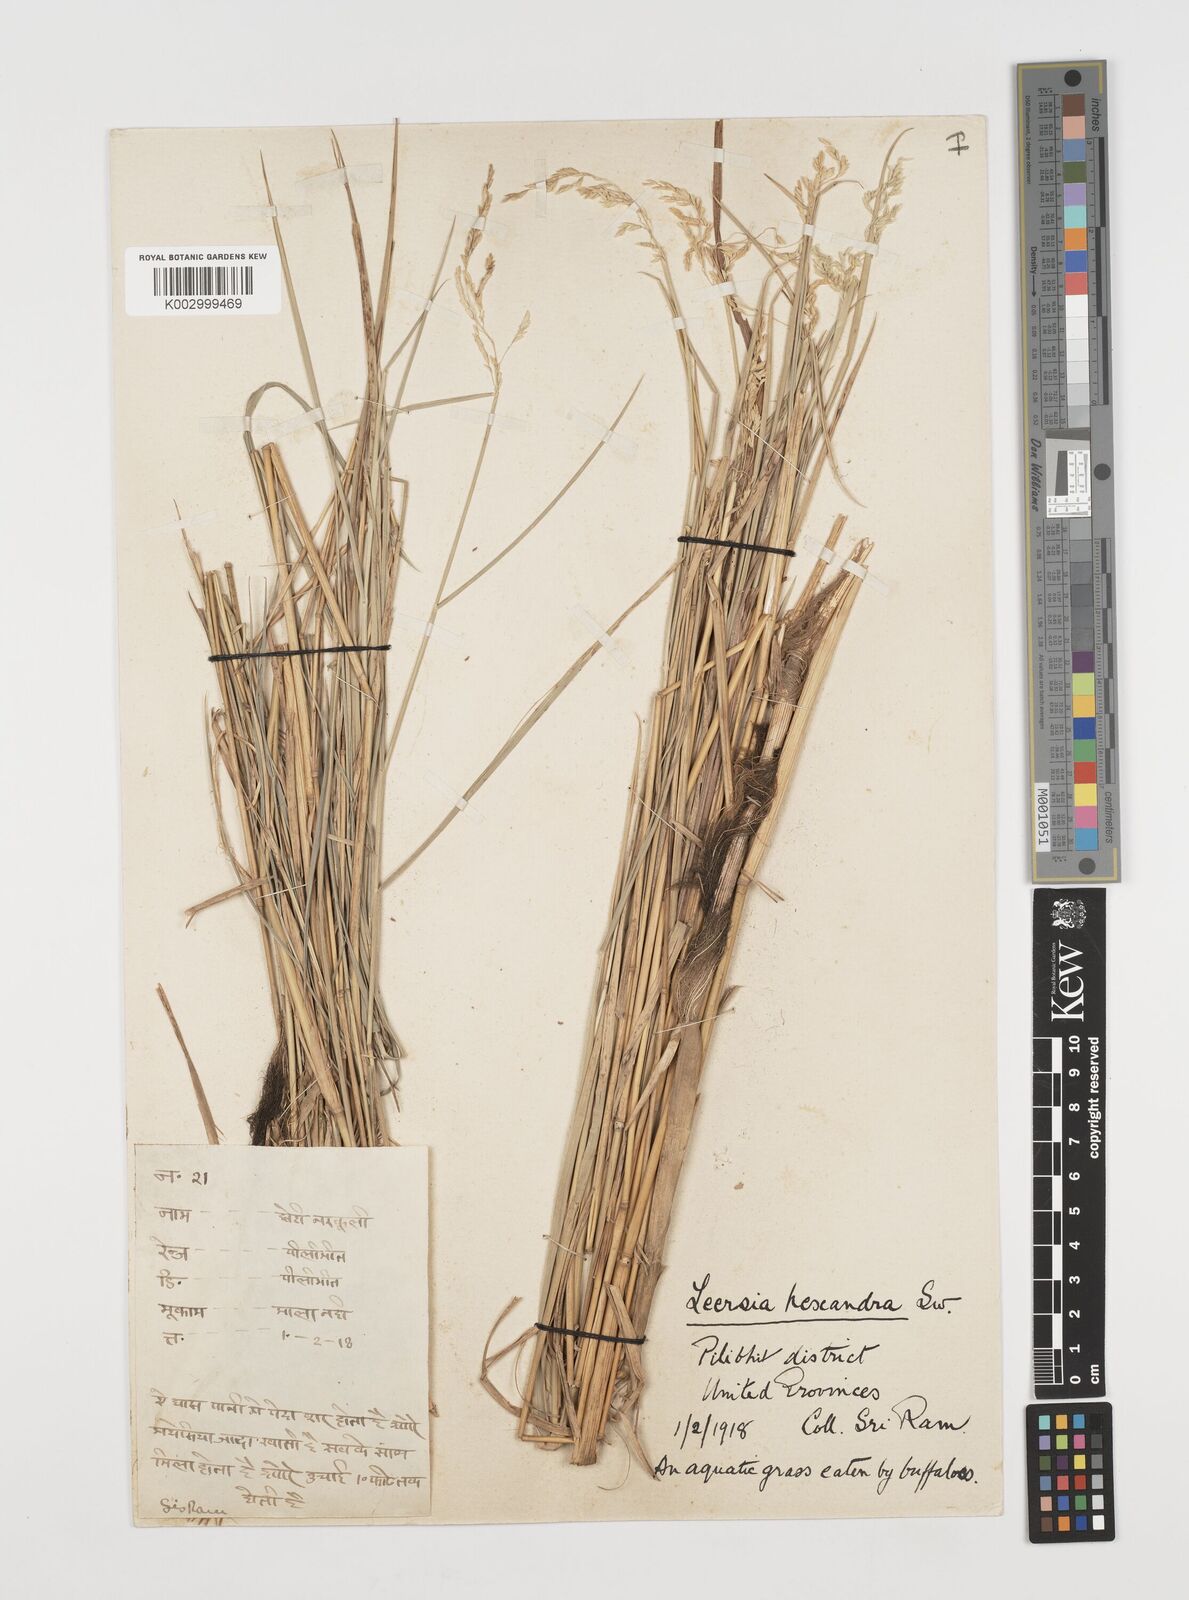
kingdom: Plantae
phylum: Tracheophyta
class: Liliopsida
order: Poales
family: Poaceae
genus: Leersia
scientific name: Leersia hexandra
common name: Southern cut grass
